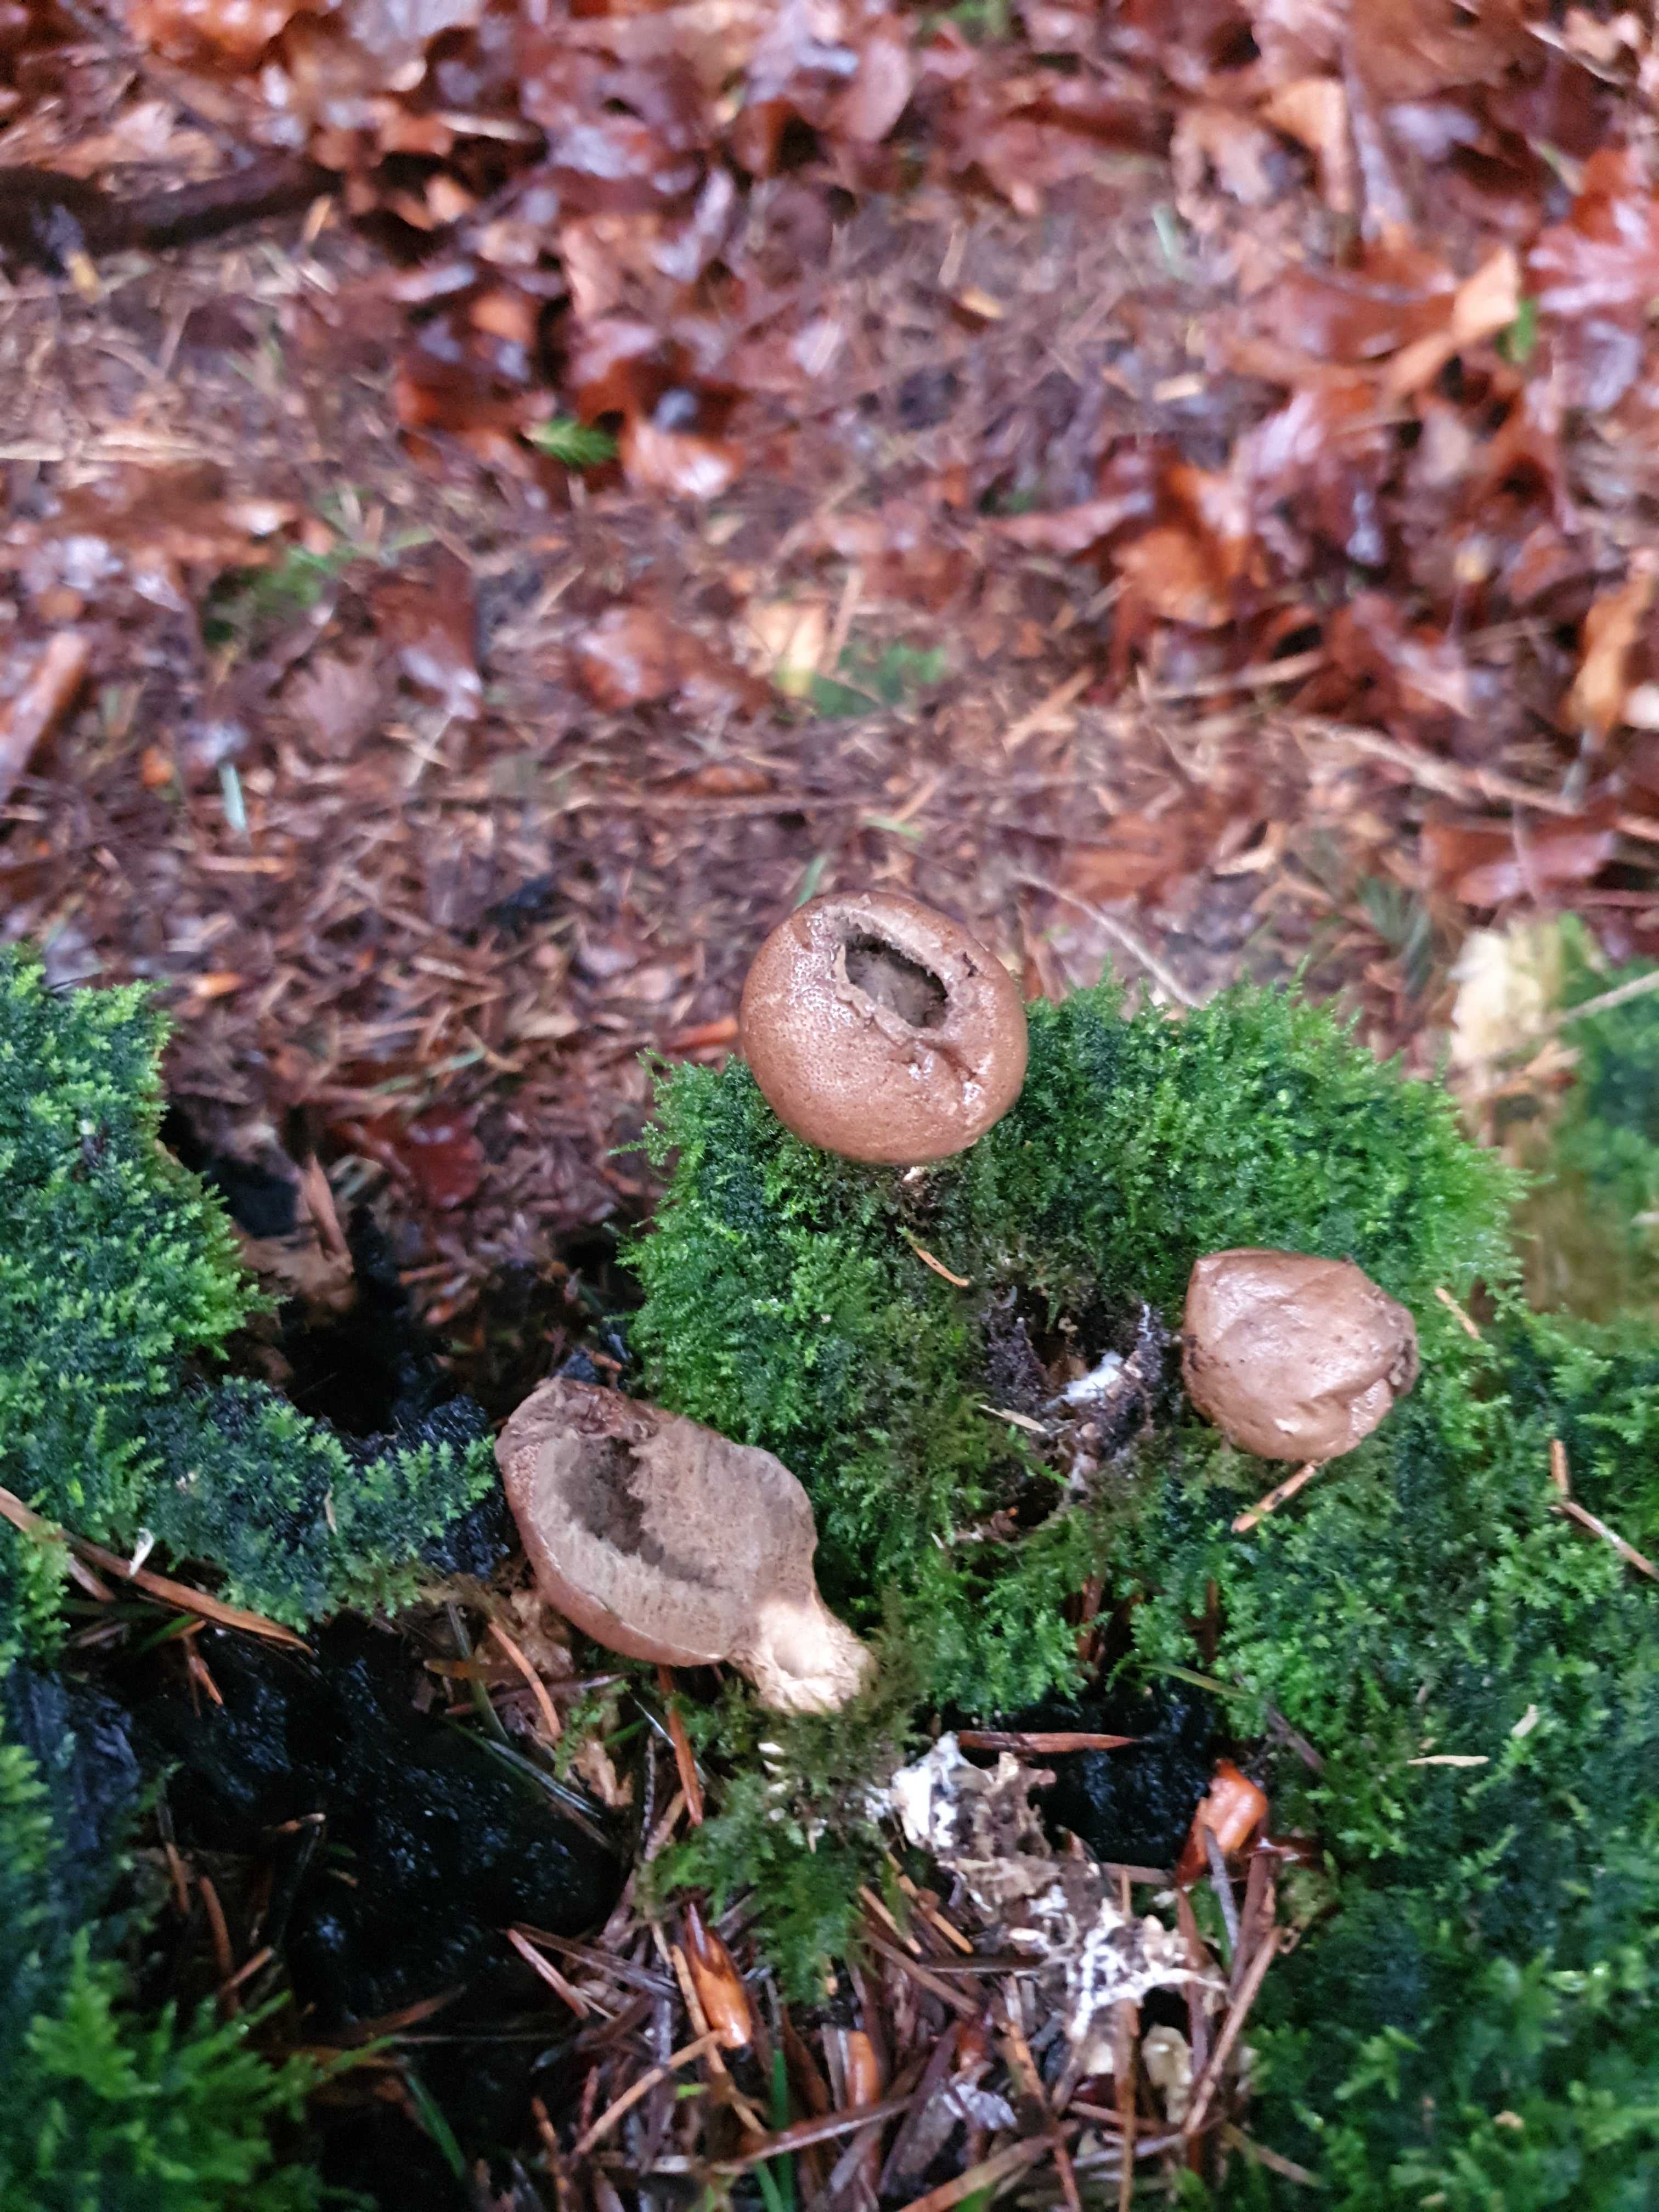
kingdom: Fungi
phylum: Basidiomycota
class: Agaricomycetes
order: Agaricales
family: Lycoperdaceae
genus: Apioperdon
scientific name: Apioperdon pyriforme
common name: pære-støvbold
